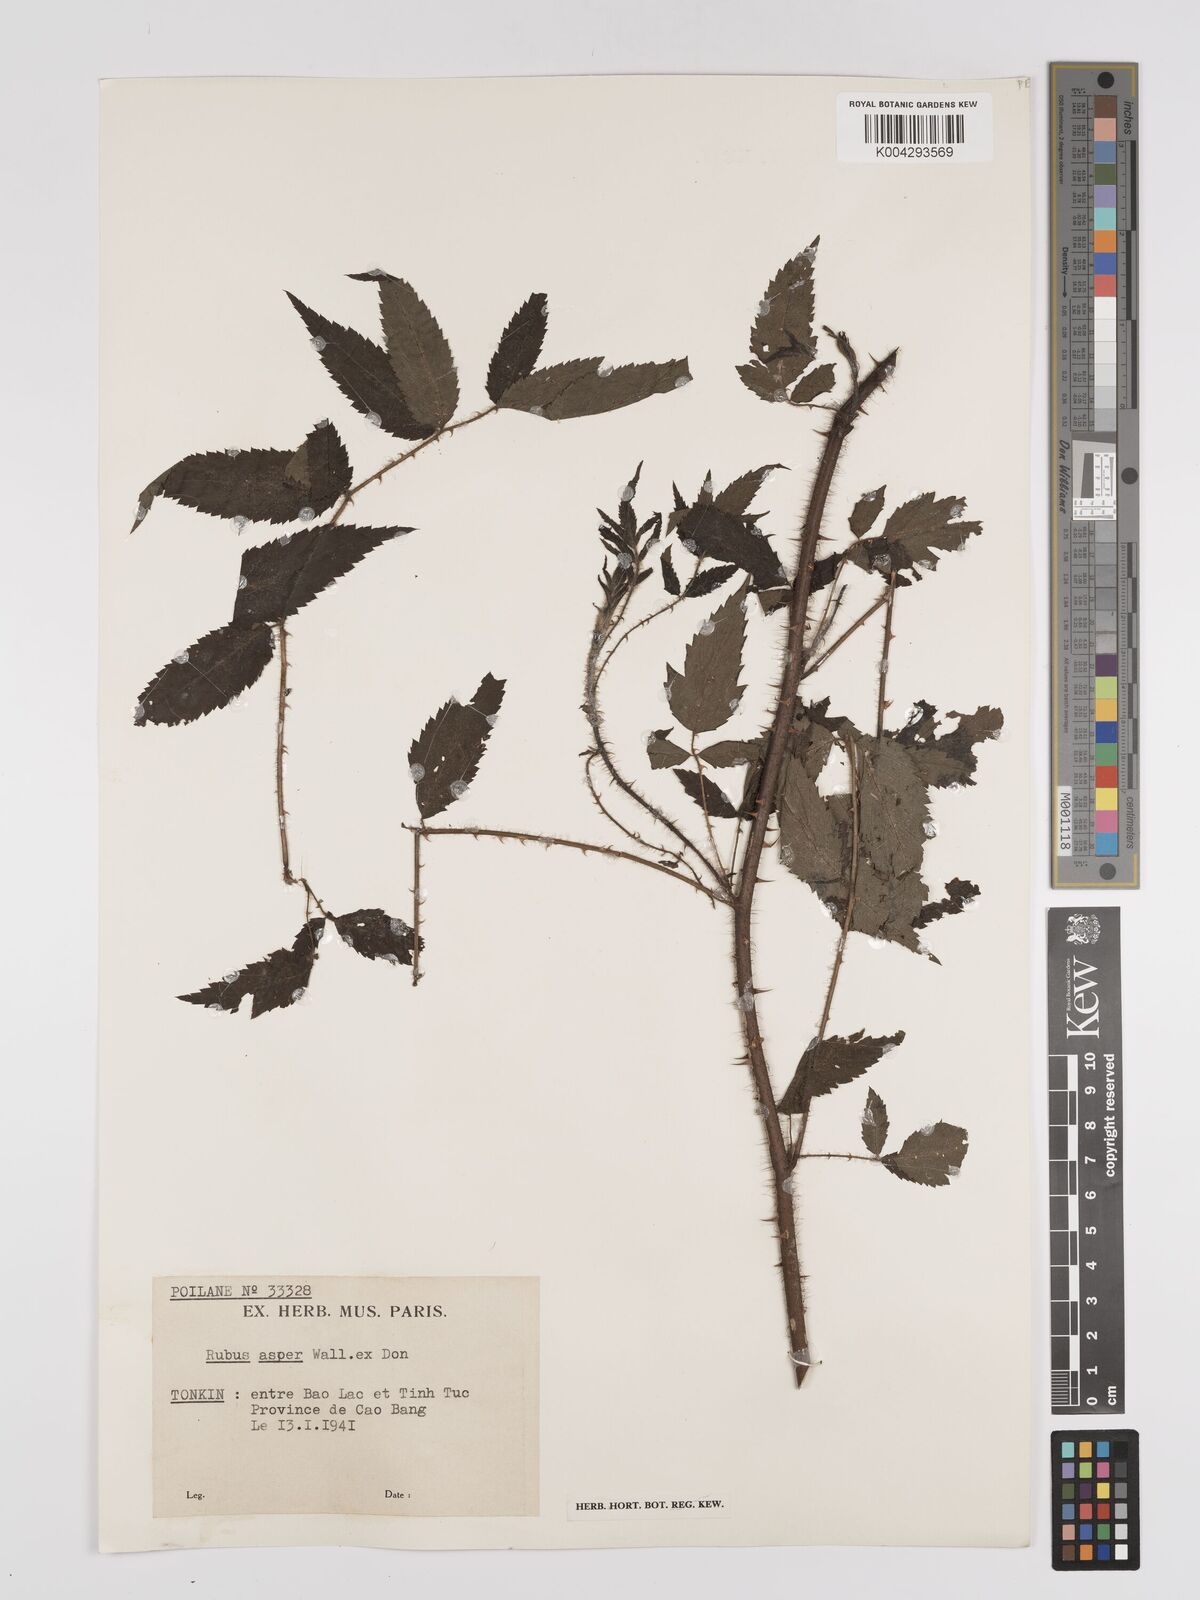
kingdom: Plantae
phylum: Tracheophyta
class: Magnoliopsida
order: Rosales
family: Rosaceae
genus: Rubus
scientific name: Rubus sumatranus
